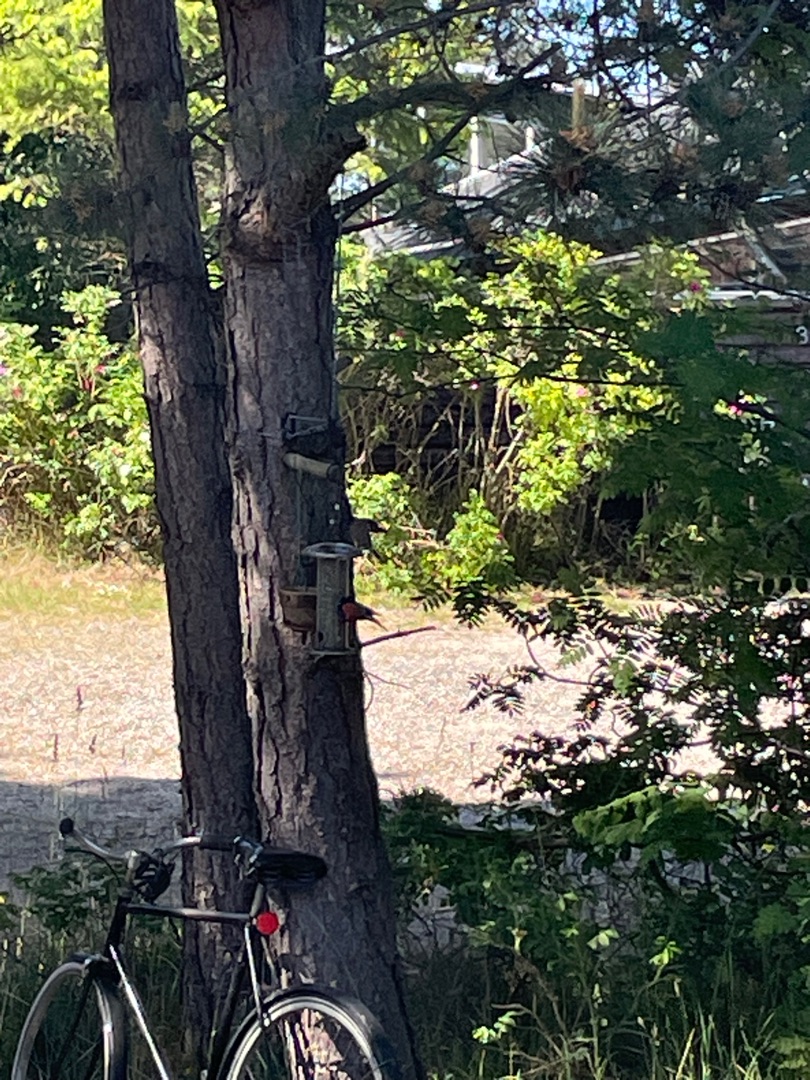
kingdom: Animalia
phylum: Chordata
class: Aves
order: Passeriformes
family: Fringillidae
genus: Pyrrhula
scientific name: Pyrrhula pyrrhula
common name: Dompap
